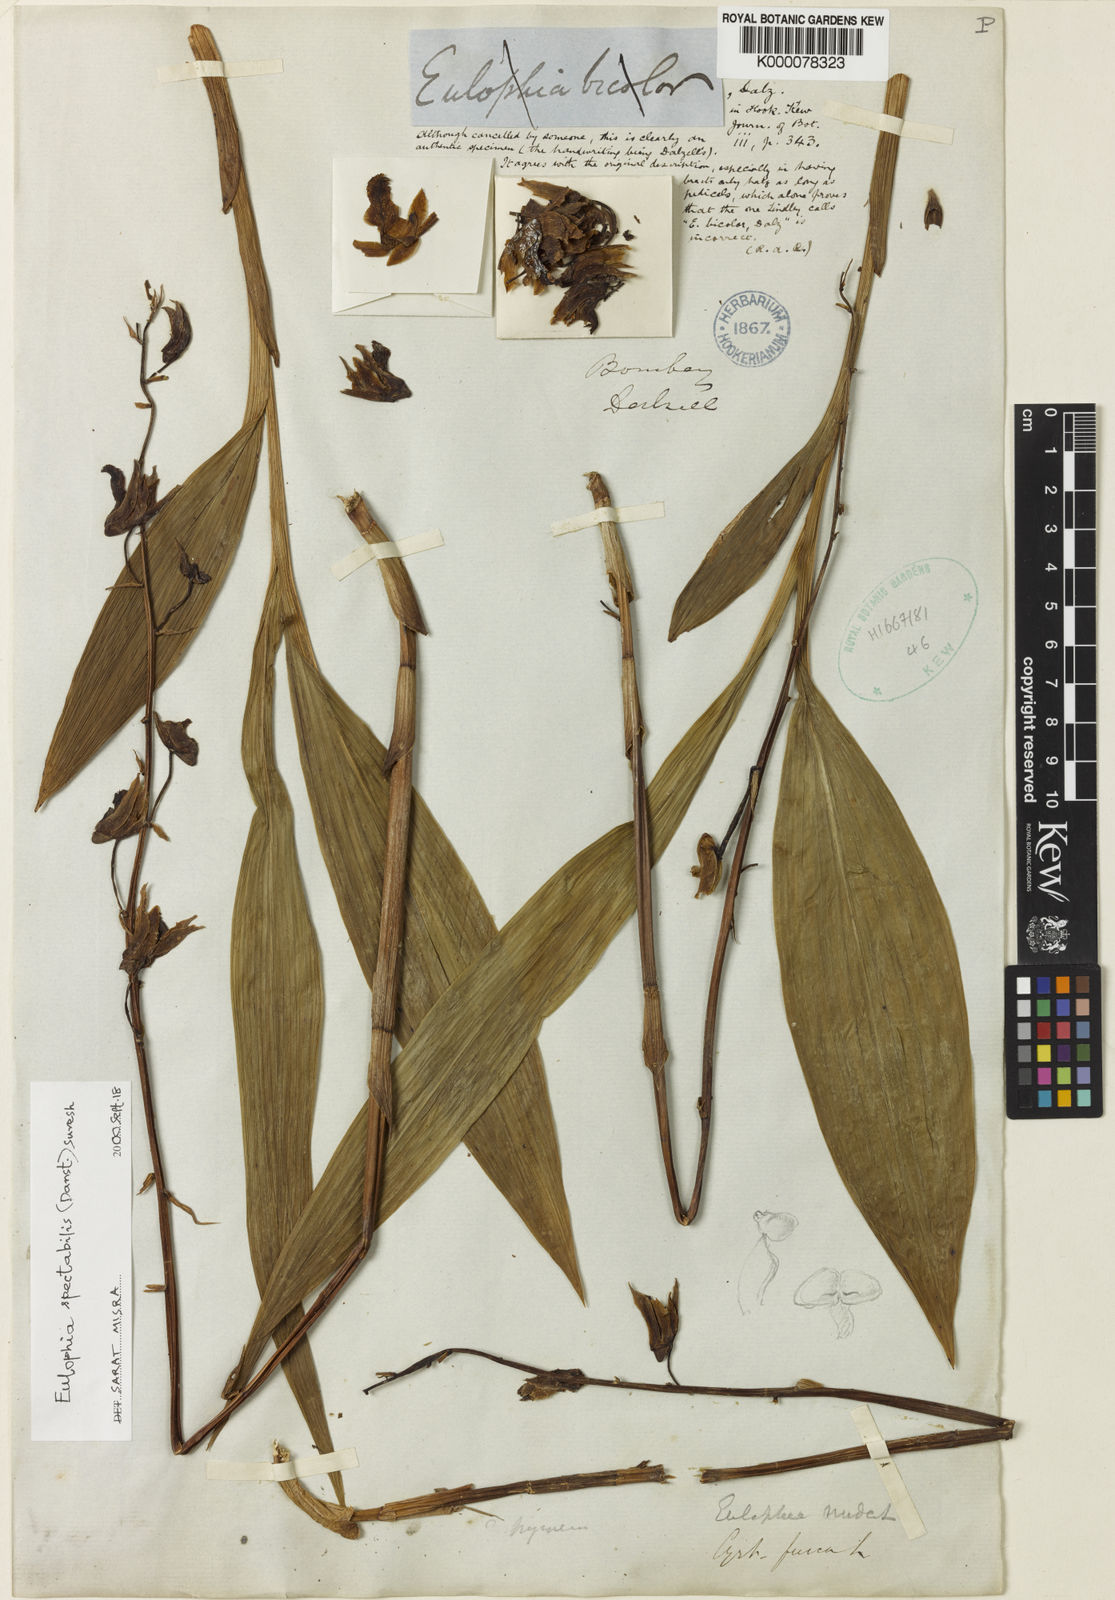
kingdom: Plantae
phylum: Tracheophyta
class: Liliopsida
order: Asparagales
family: Orchidaceae
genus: Eulophia
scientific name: Eulophia nuda
